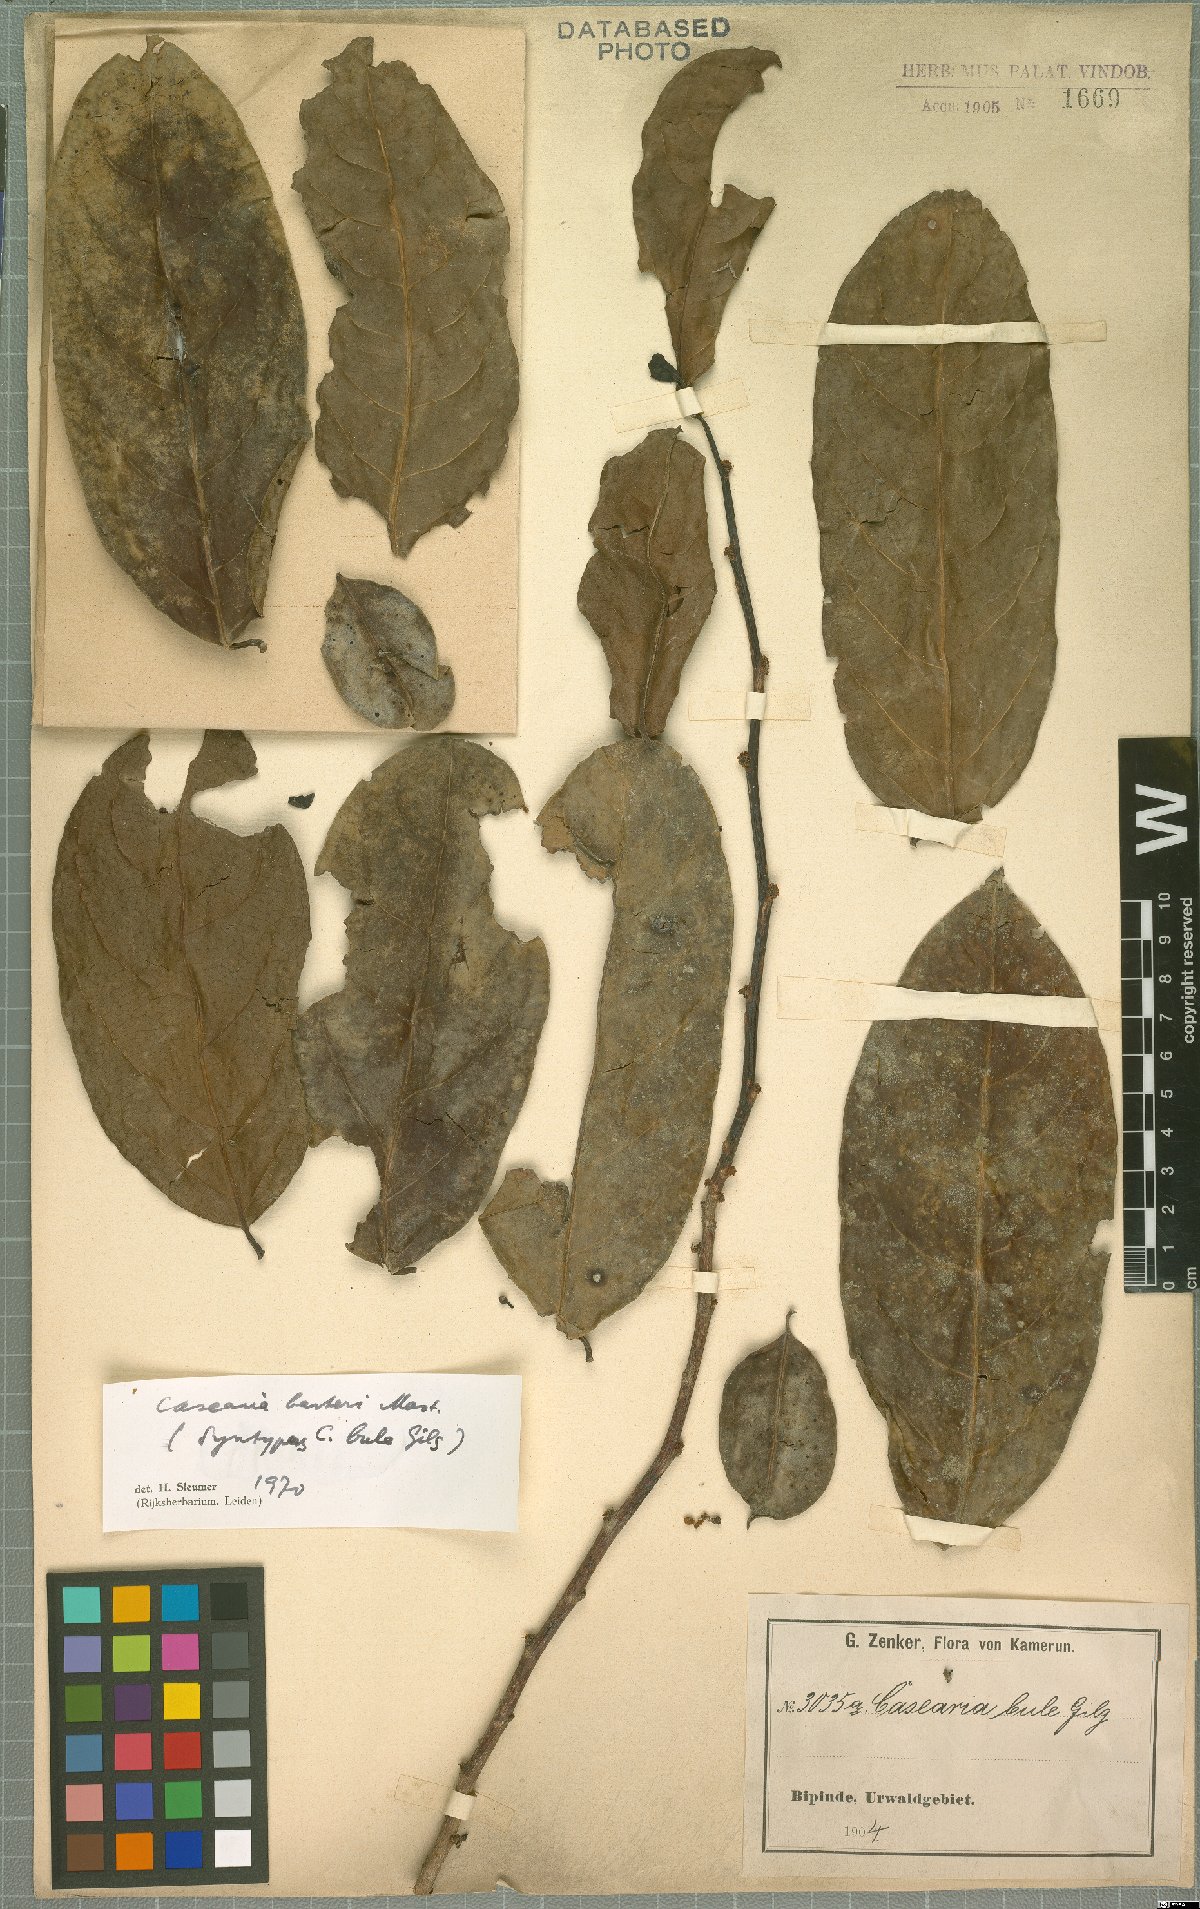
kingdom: Plantae
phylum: Tracheophyta
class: Magnoliopsida
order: Malpighiales
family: Salicaceae
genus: Casearia
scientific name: Casearia barteri
